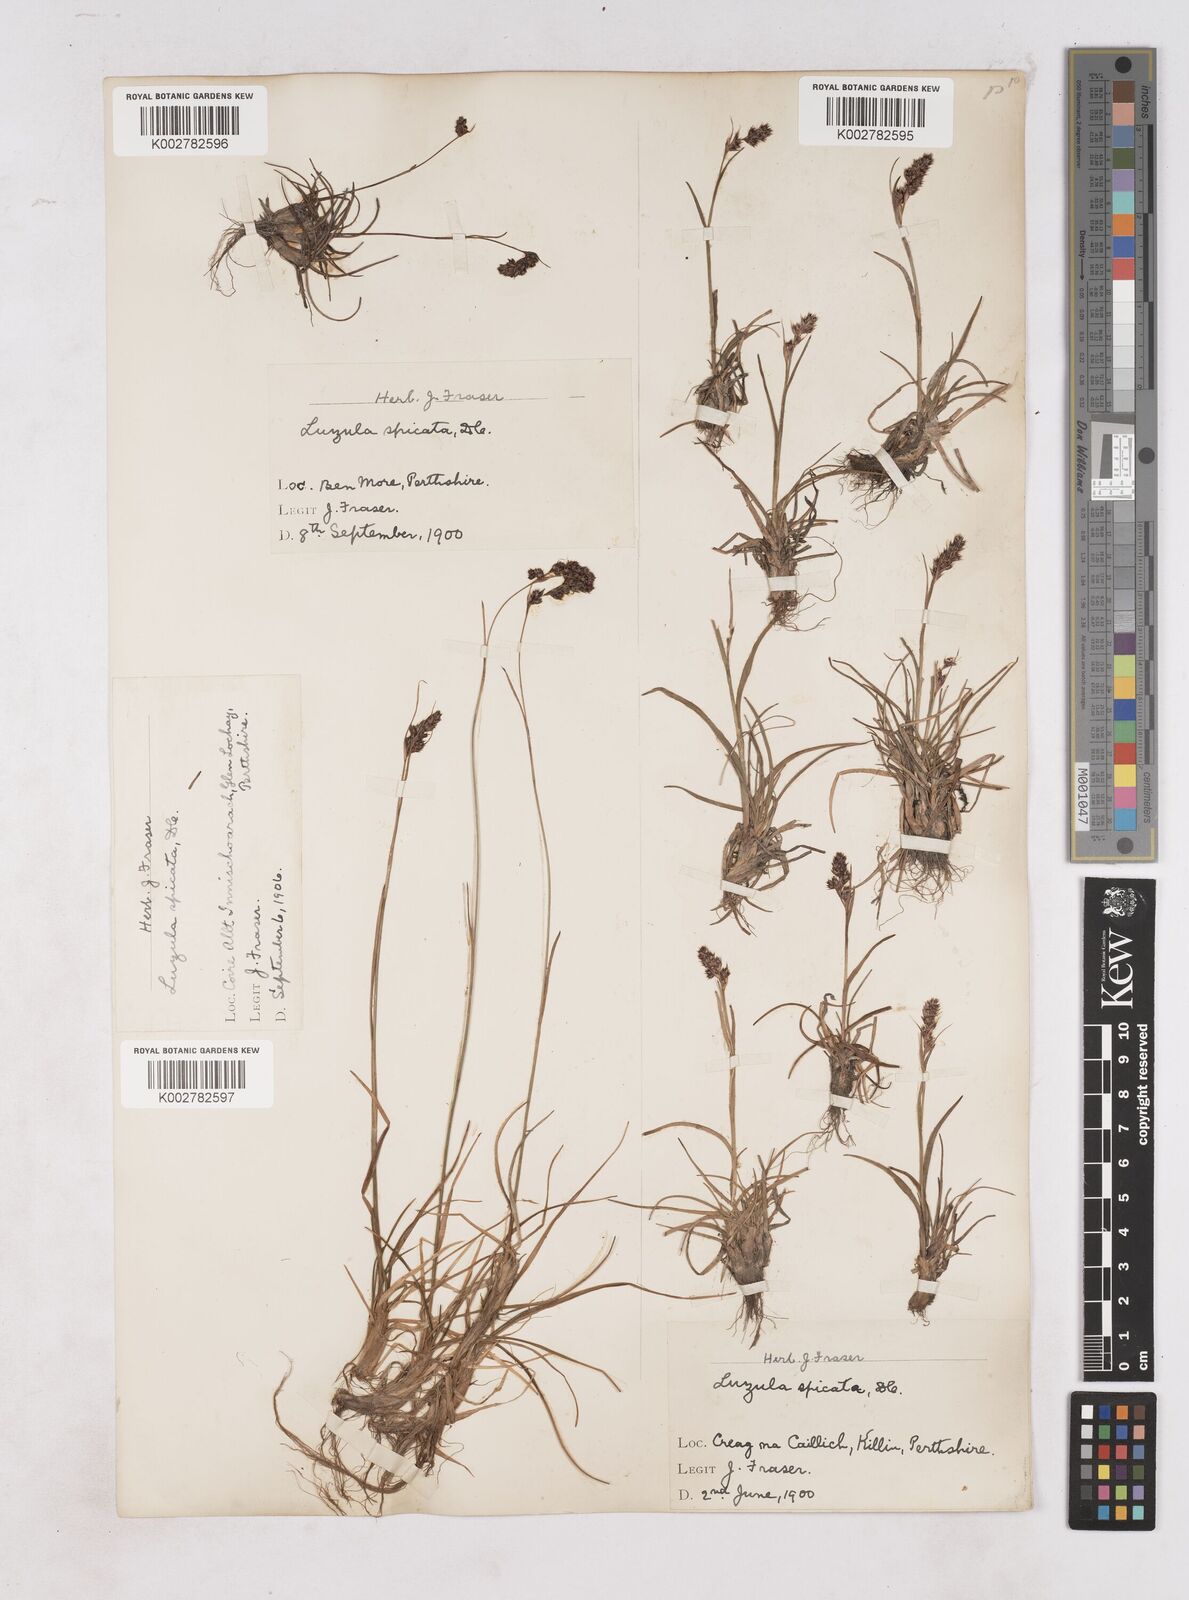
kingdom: Plantae
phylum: Tracheophyta
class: Liliopsida
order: Poales
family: Juncaceae
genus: Luzula
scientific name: Luzula spicata
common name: Spiked wood-rush
